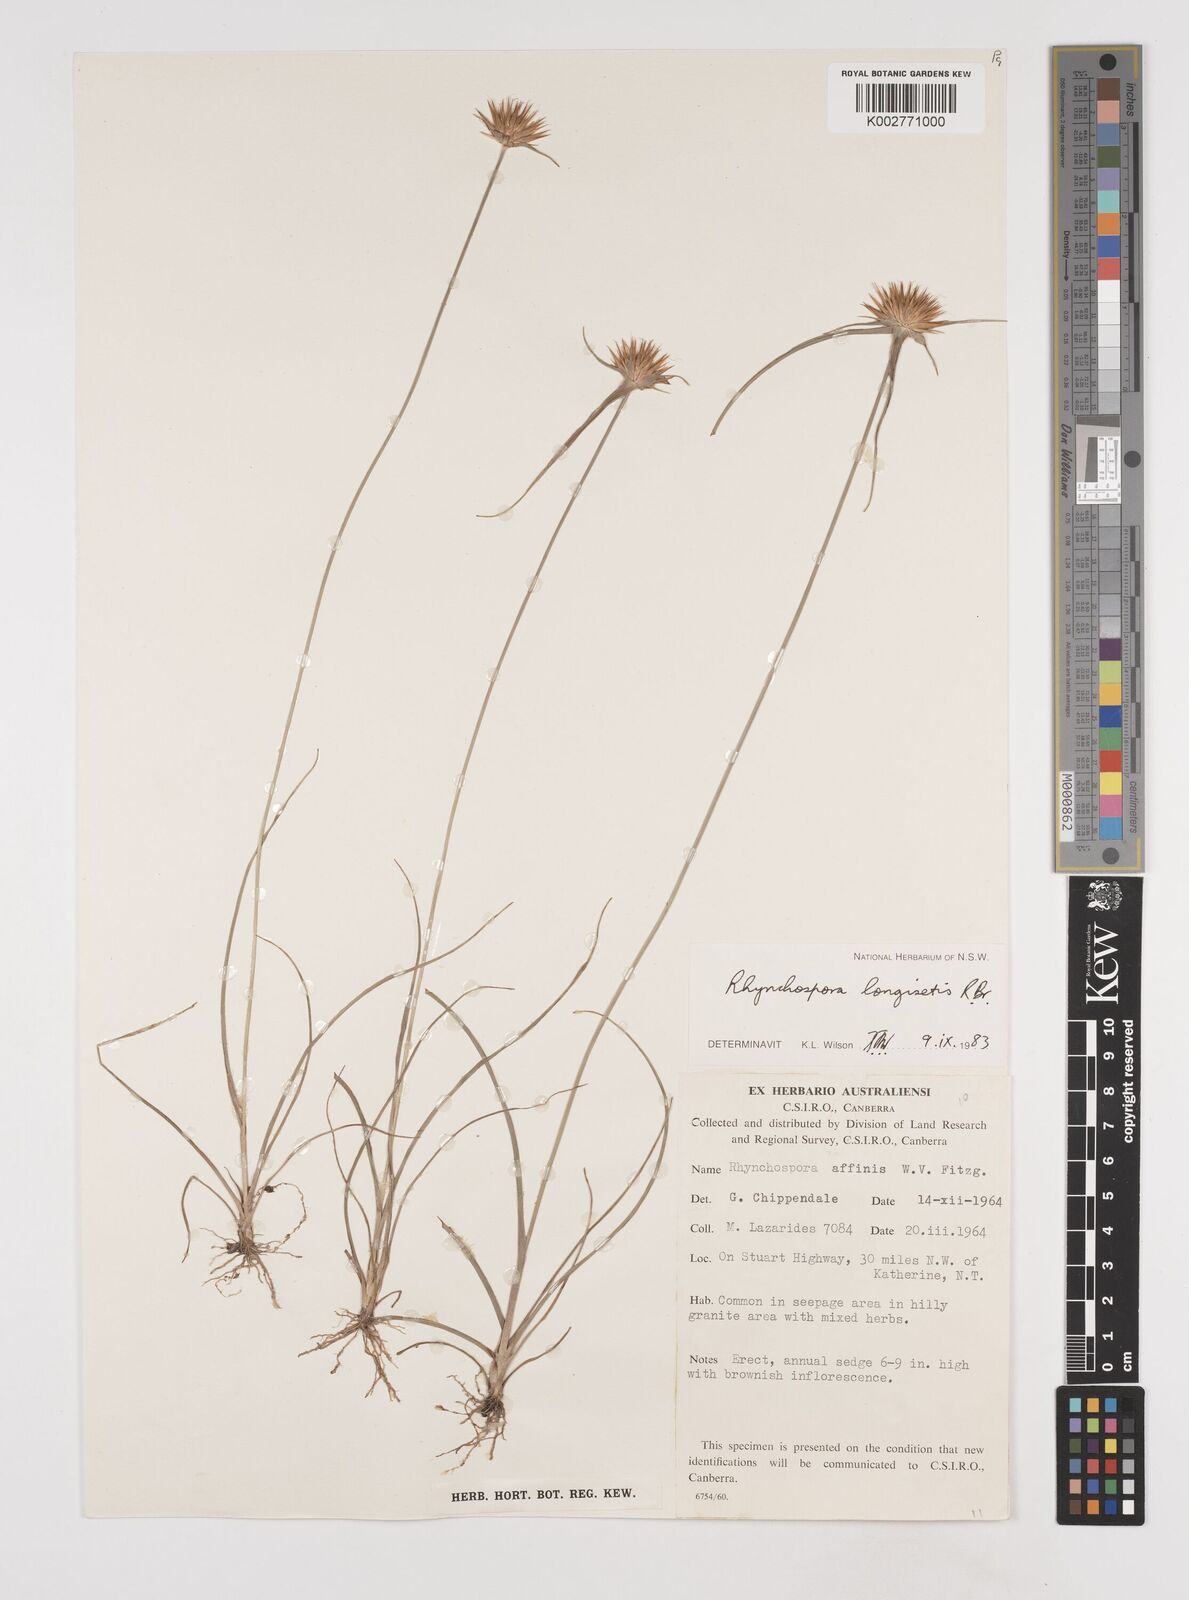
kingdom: Plantae
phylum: Tracheophyta
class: Liliopsida
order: Poales
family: Cyperaceae
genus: Rhynchospora
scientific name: Rhynchospora longisetis
